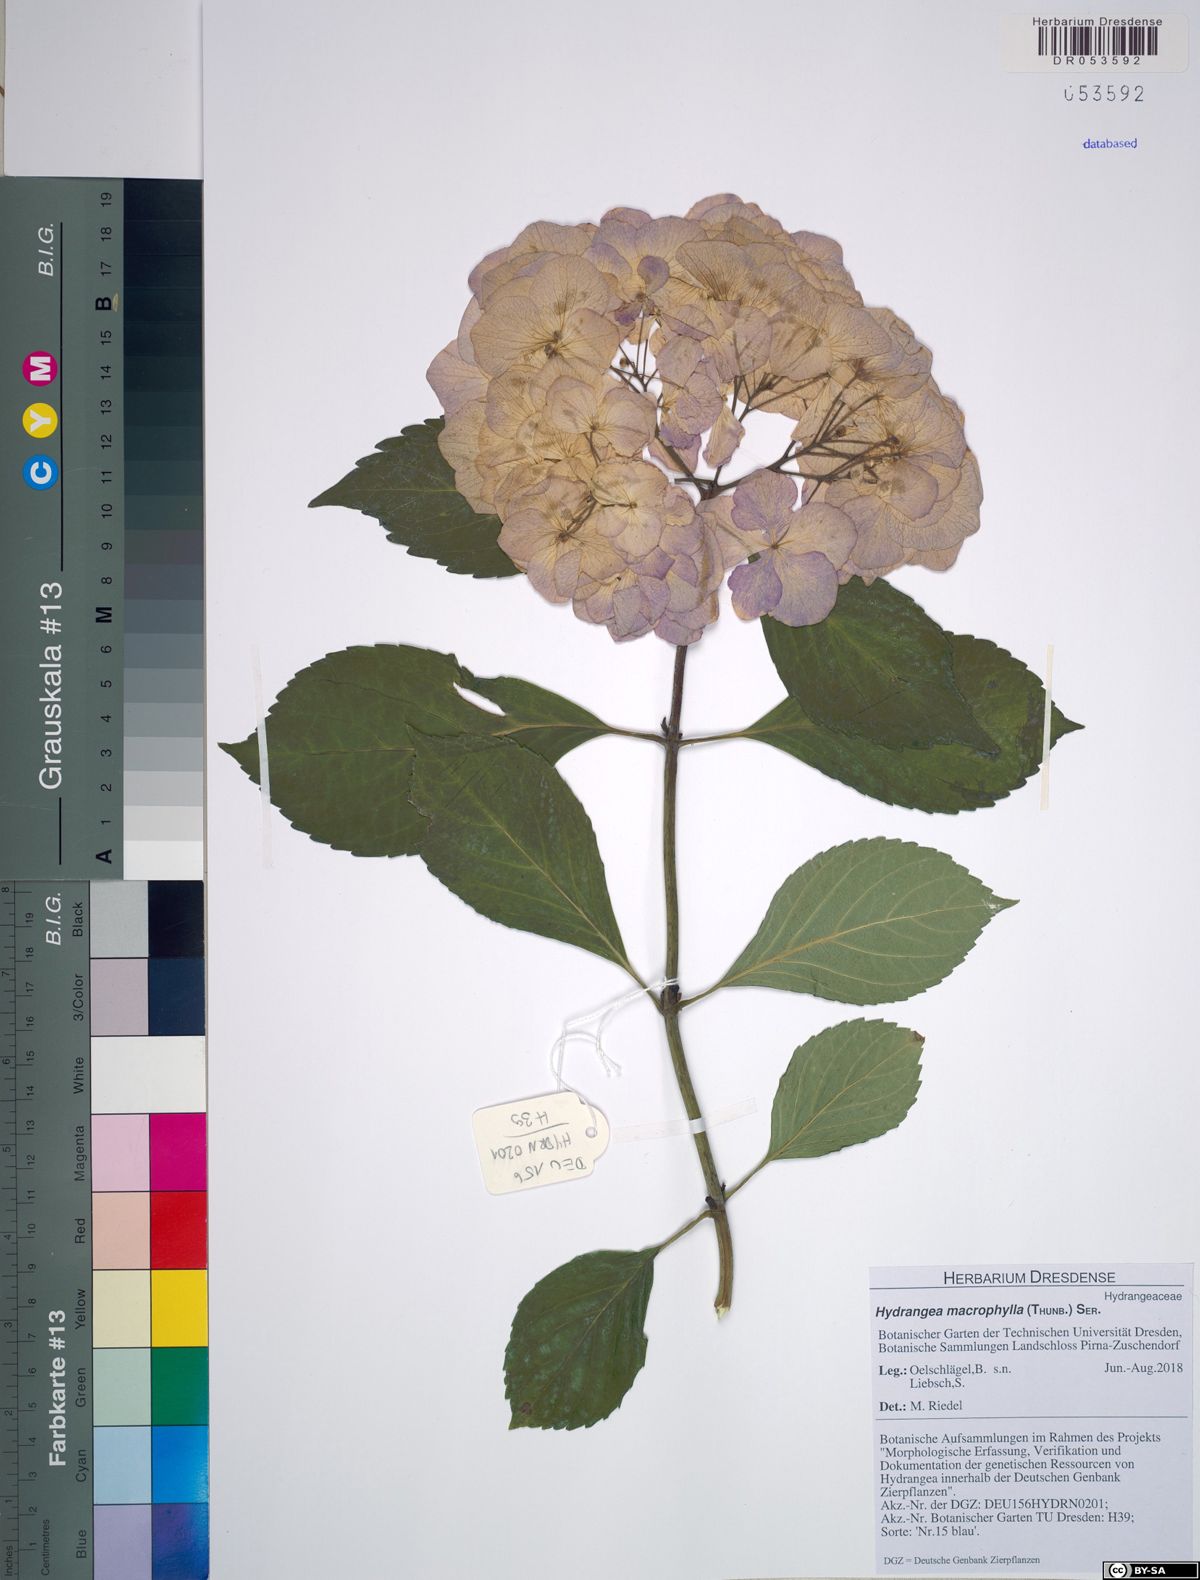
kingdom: Plantae
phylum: Tracheophyta
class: Magnoliopsida
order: Cornales
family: Hydrangeaceae
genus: Hydrangea
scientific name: Hydrangea macrophylla
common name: Hydrangea
